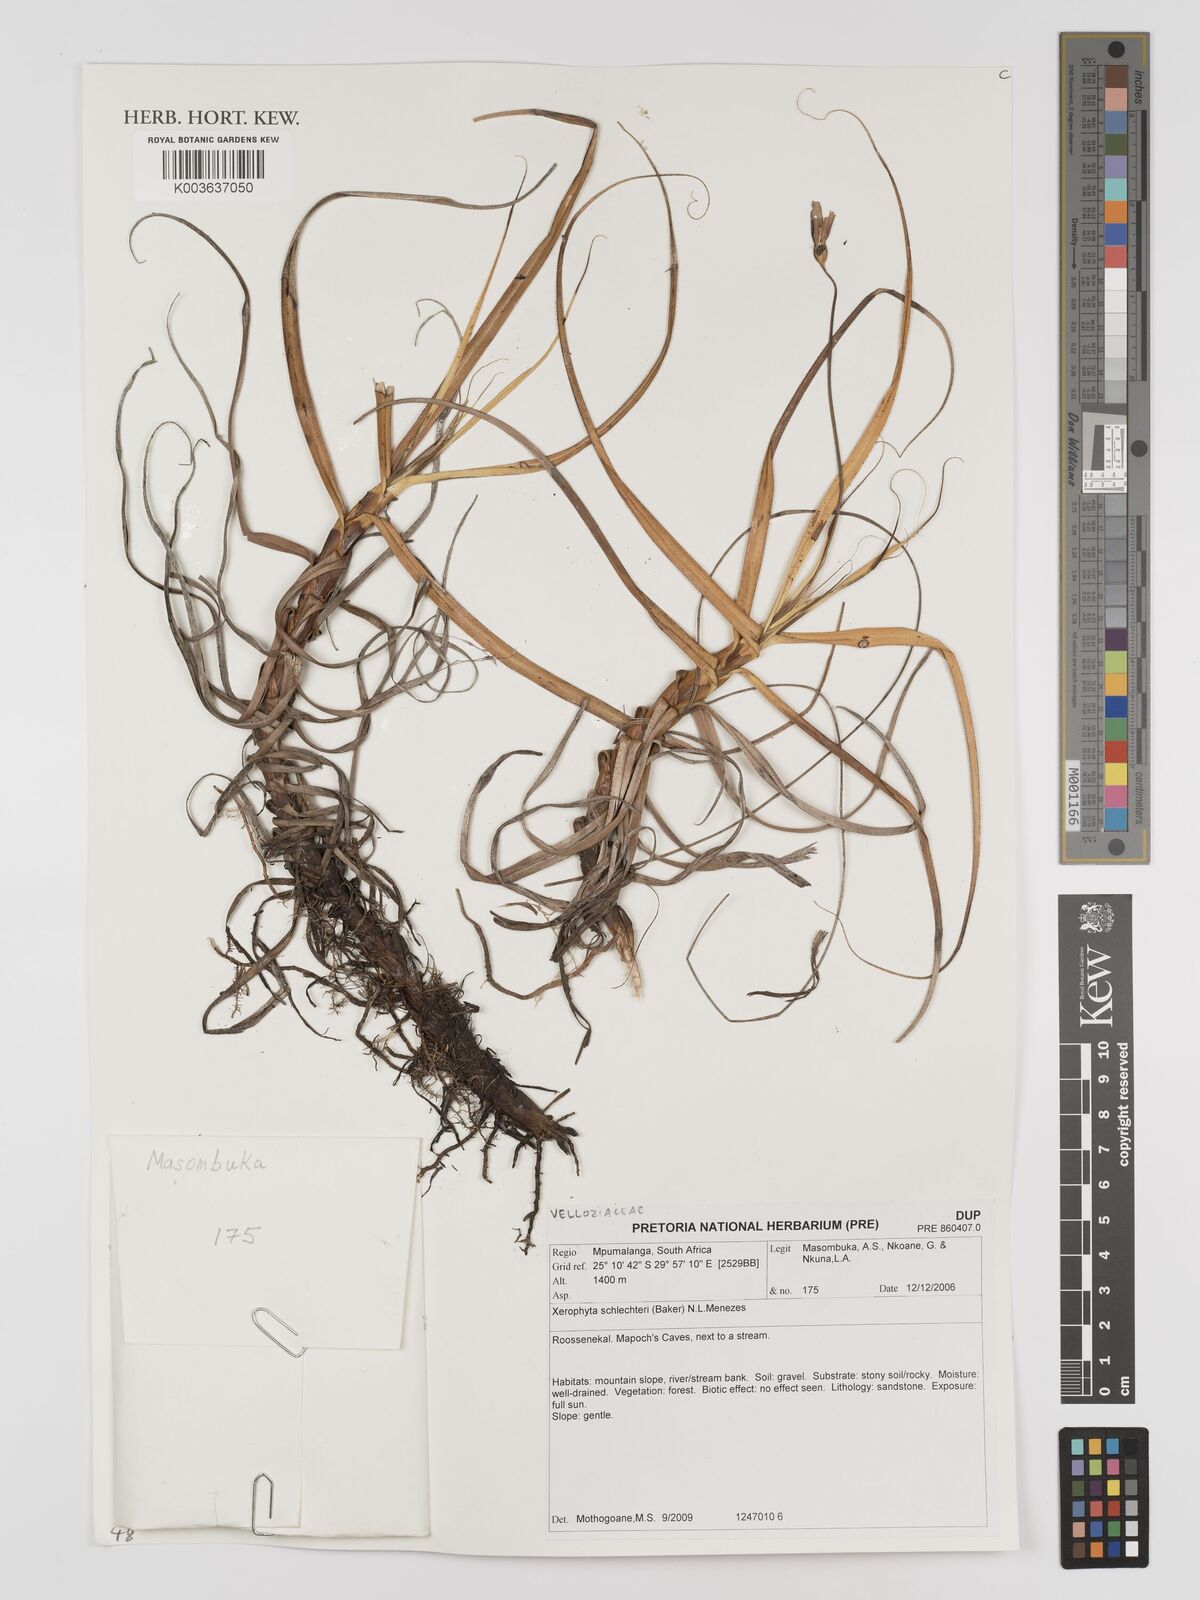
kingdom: Plantae
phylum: Tracheophyta
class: Liliopsida
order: Pandanales
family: Velloziaceae
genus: Xerophyta
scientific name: Xerophyta schlechteri
